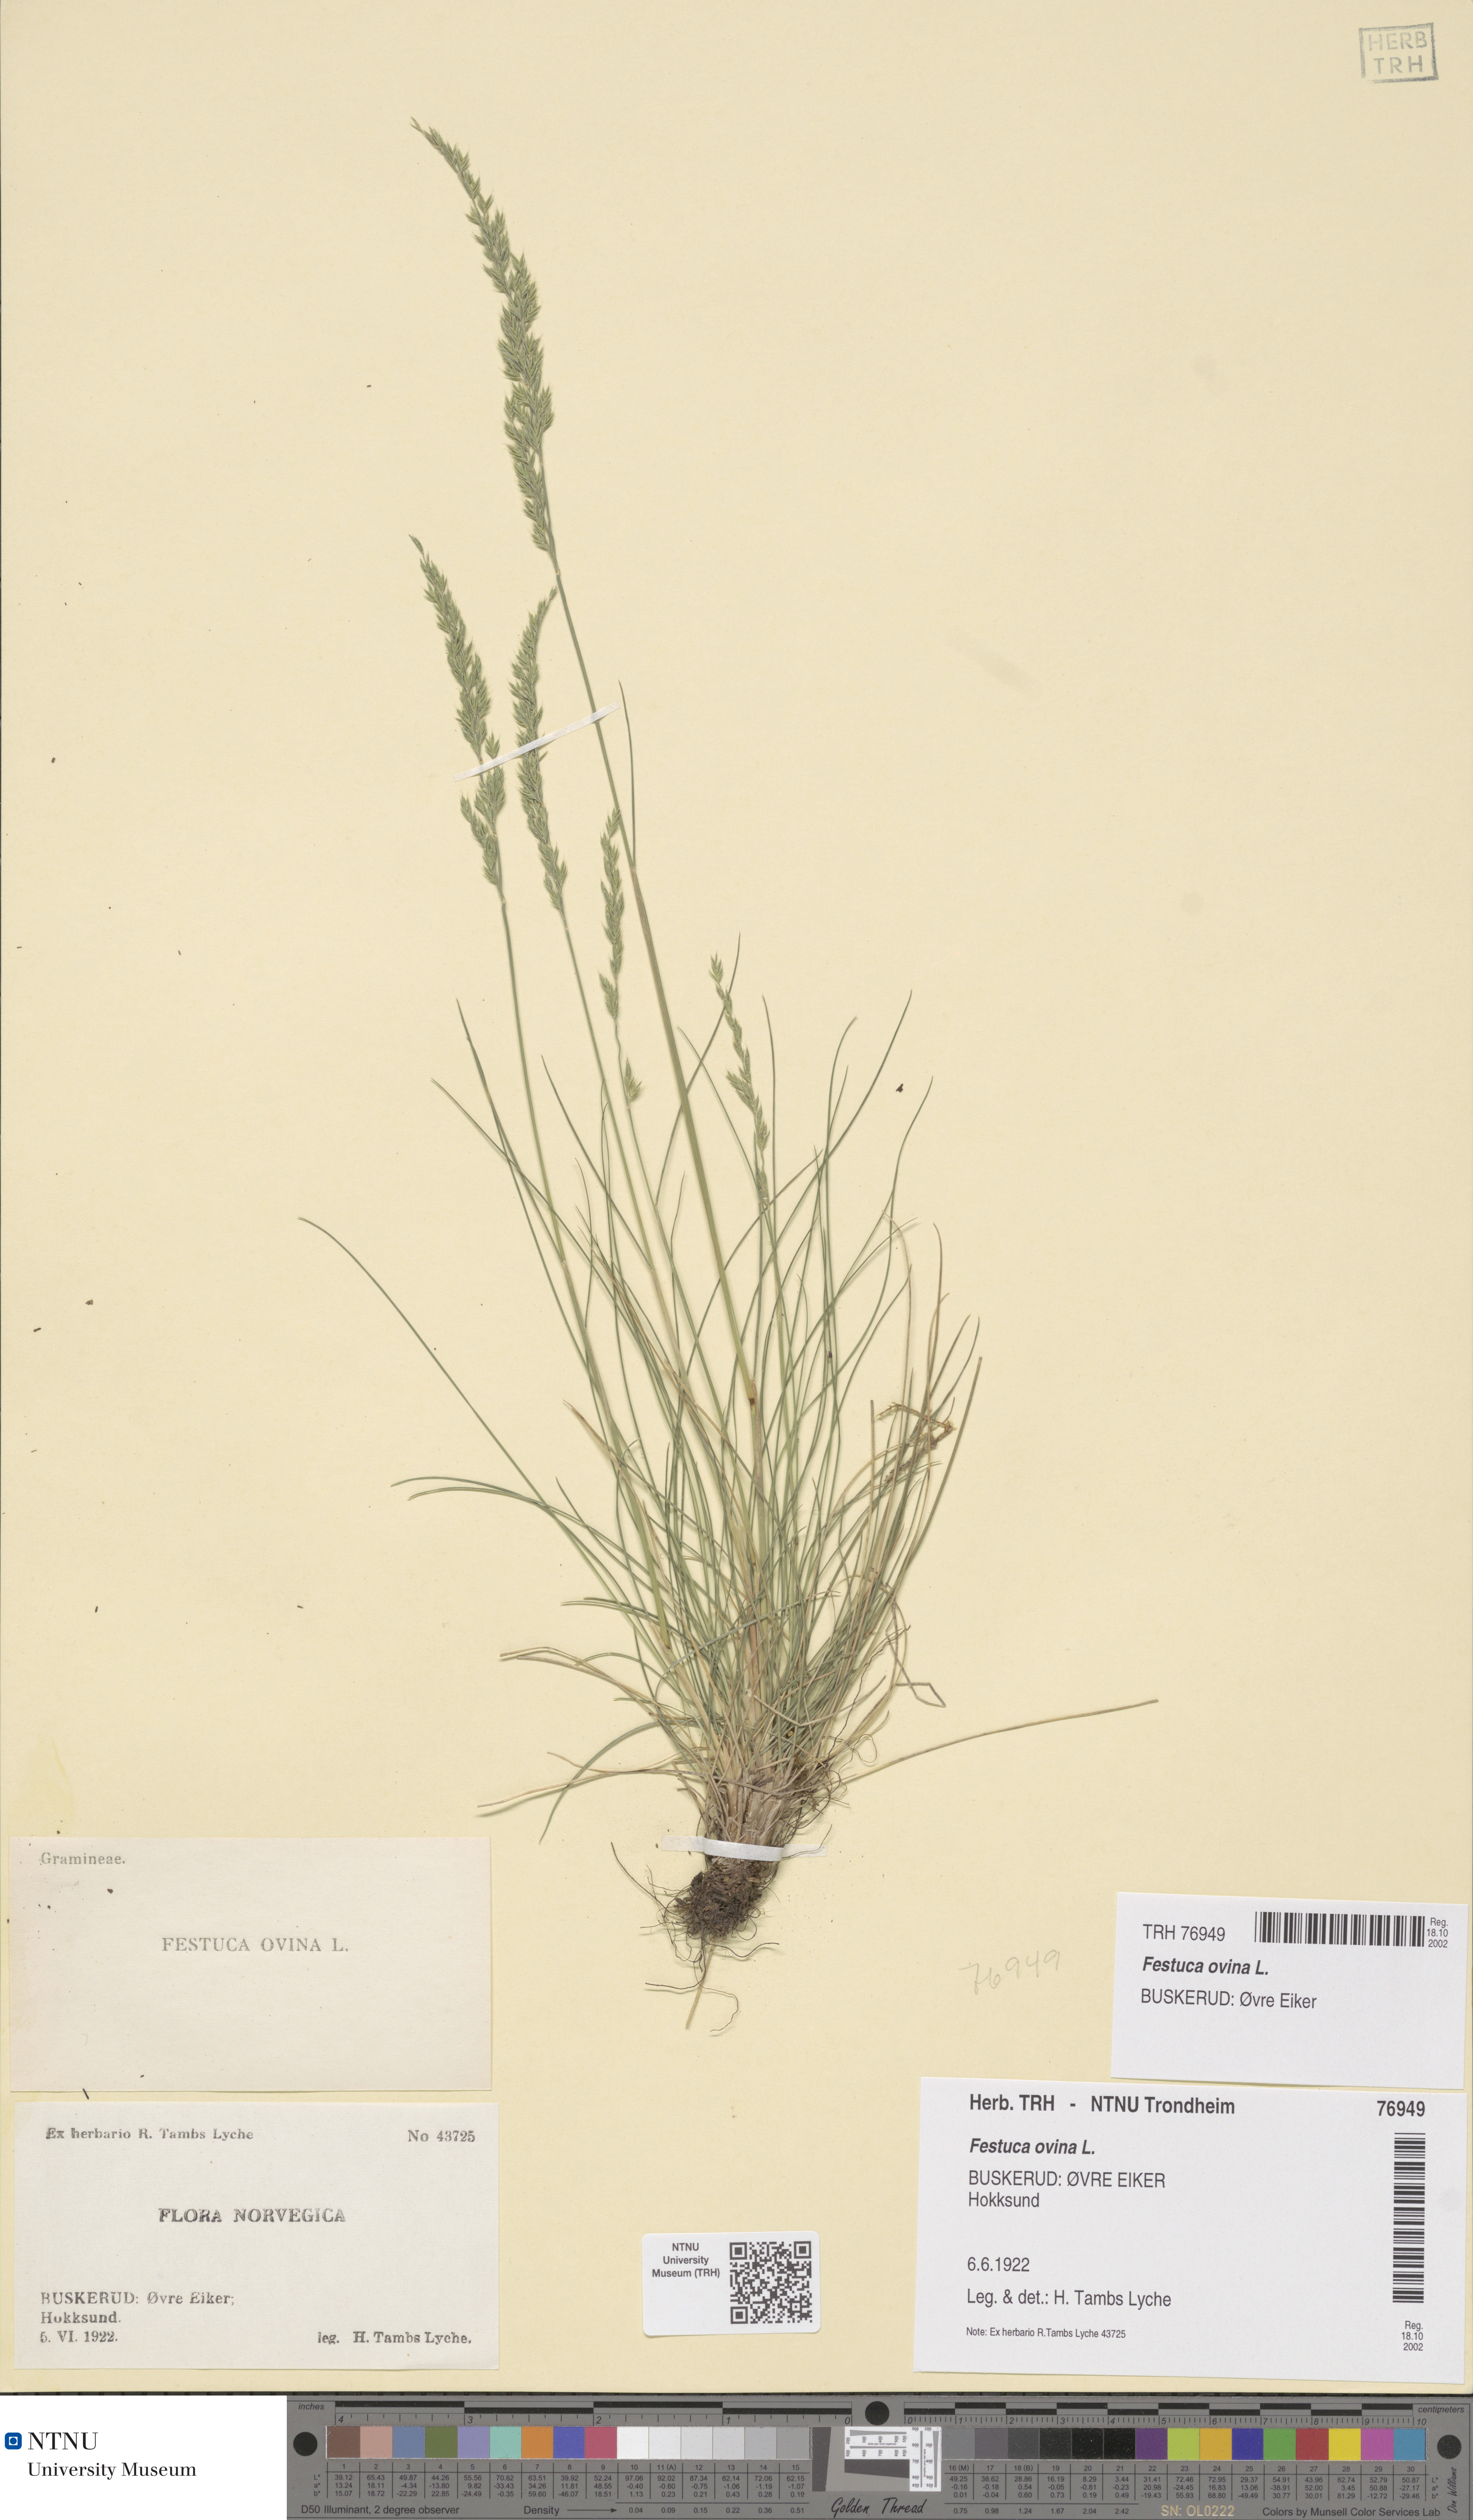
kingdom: Plantae
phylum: Tracheophyta
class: Liliopsida
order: Poales
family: Poaceae
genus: Festuca
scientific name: Festuca ovina
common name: Sheep fescue
